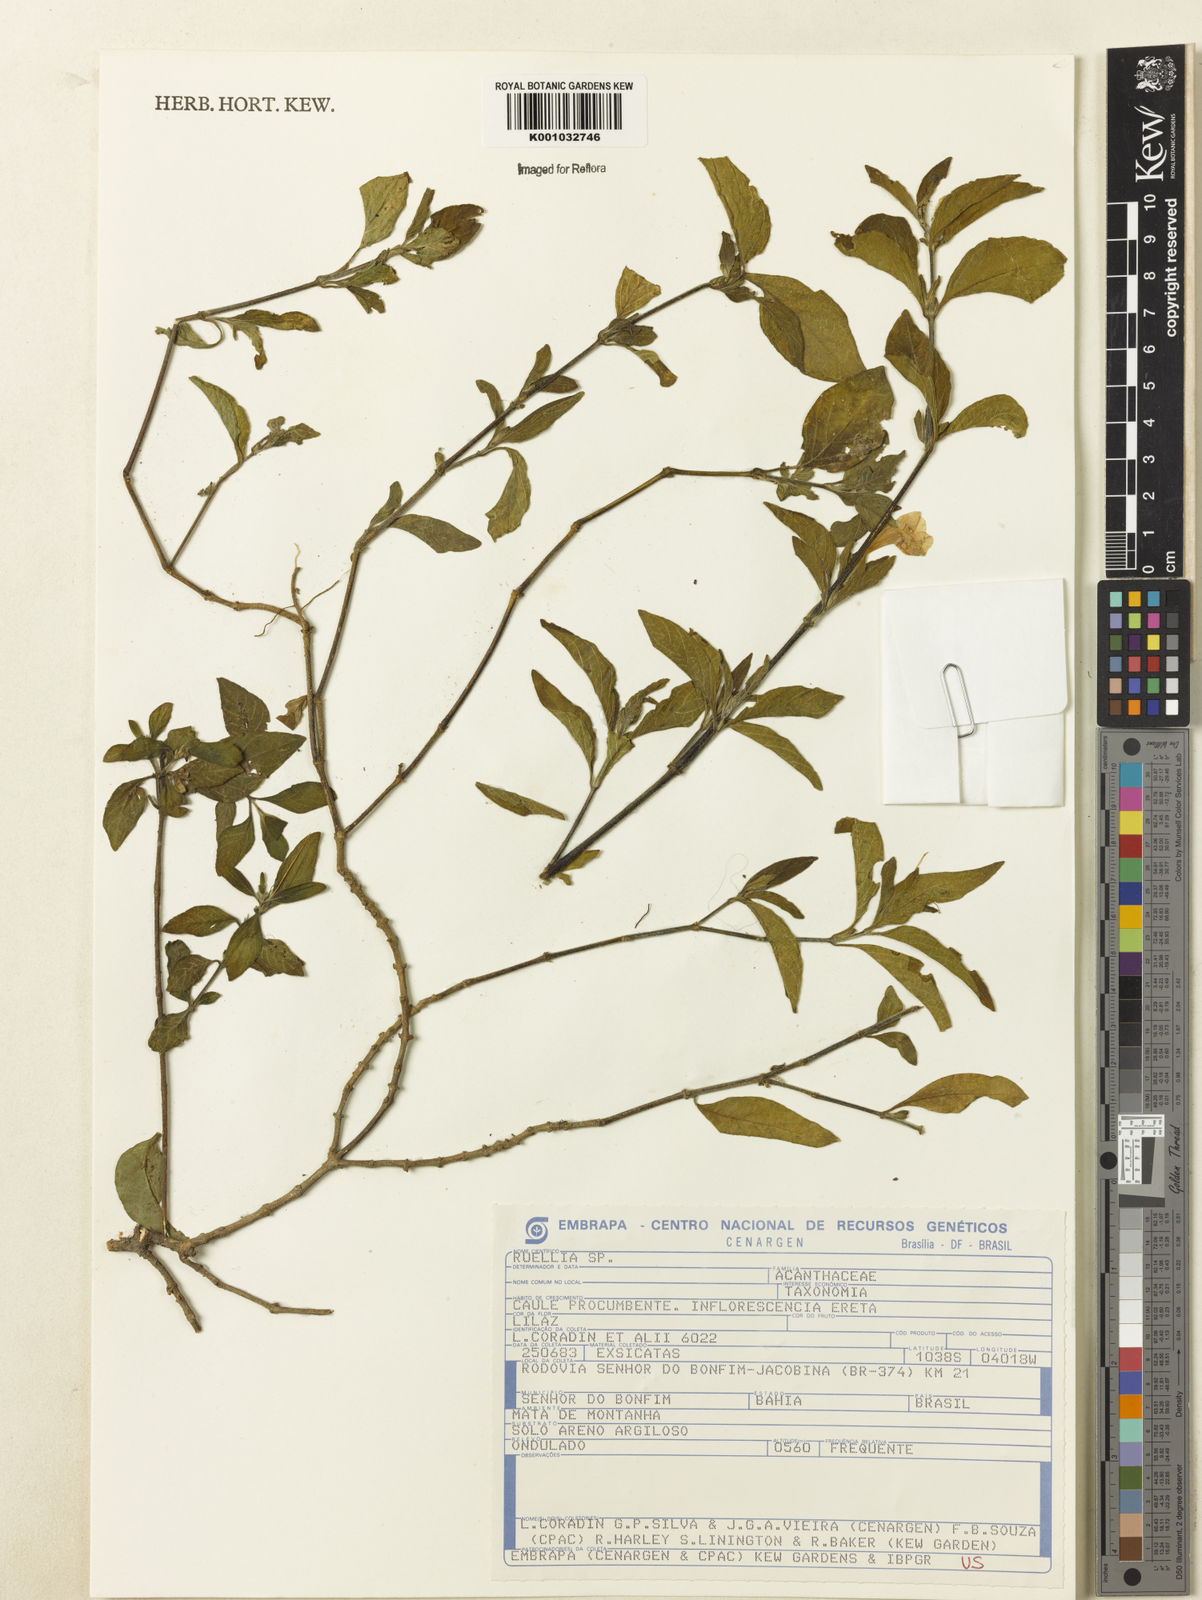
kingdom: Plantae
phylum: Tracheophyta
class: Magnoliopsida
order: Lamiales
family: Acanthaceae
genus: Ruellia
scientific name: Ruellia
